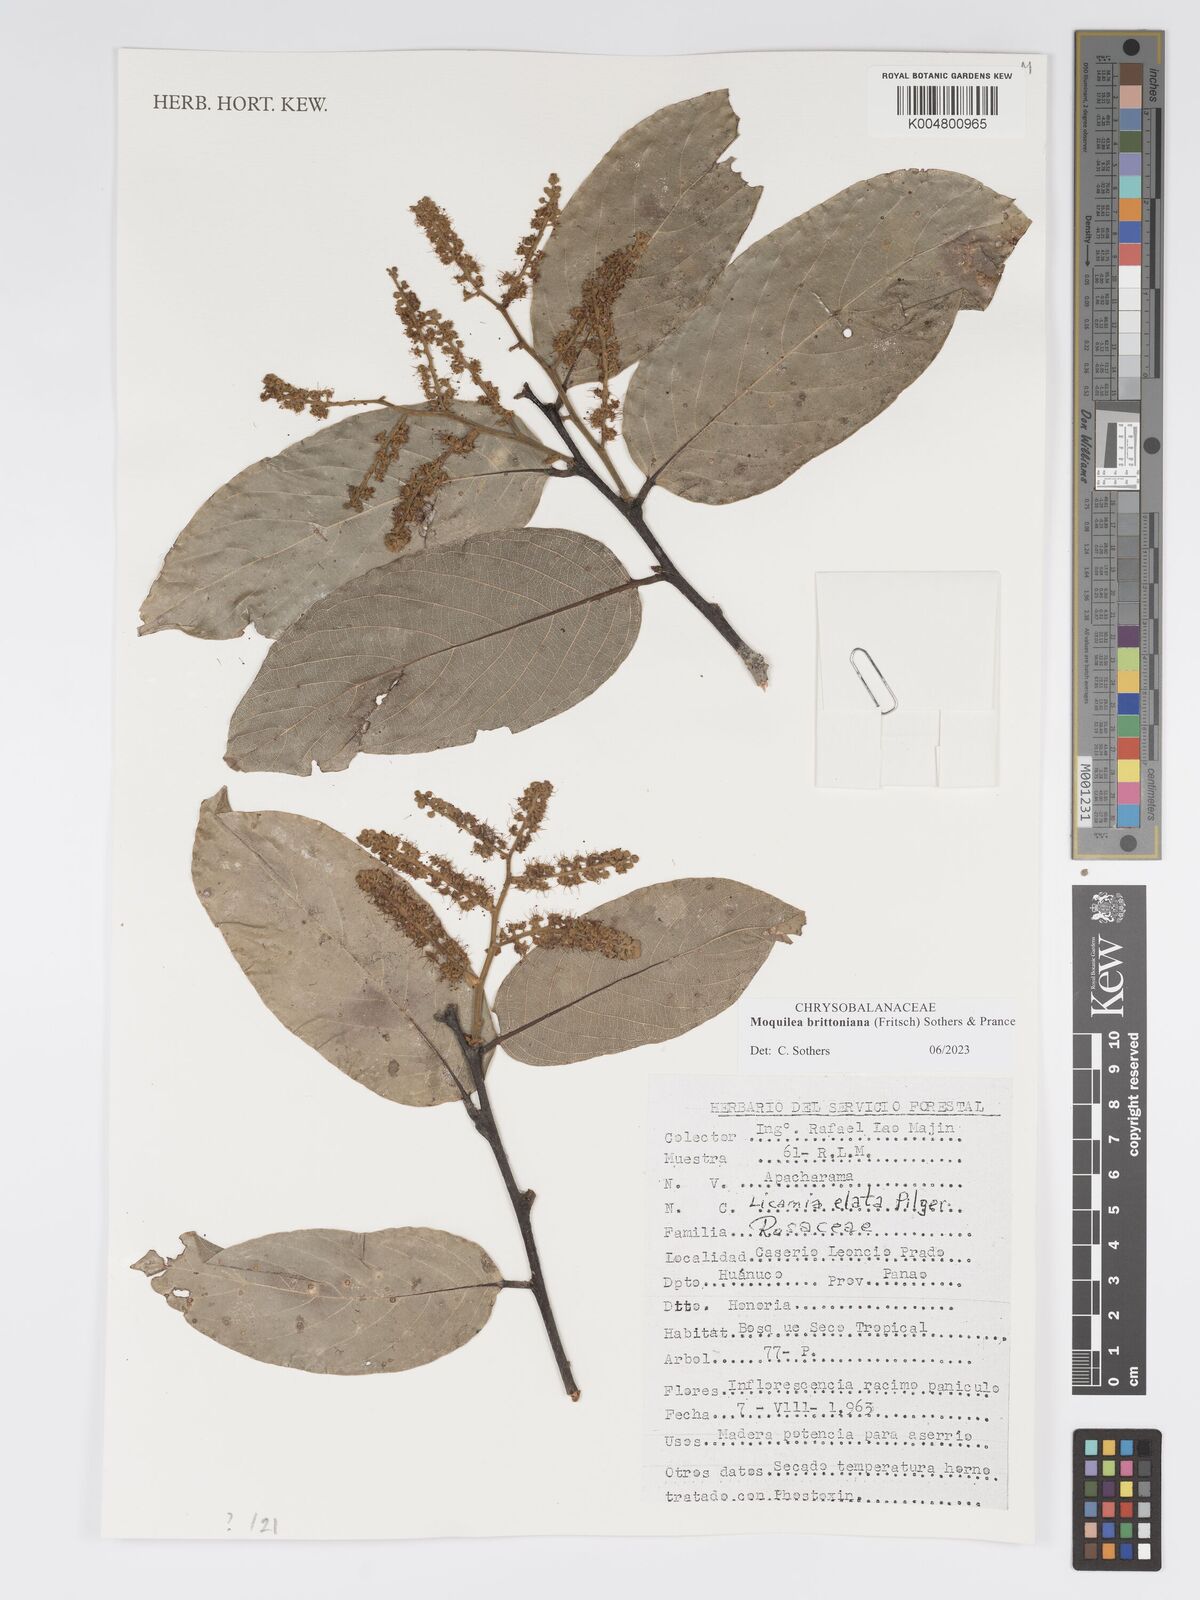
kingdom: Plantae
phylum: Tracheophyta
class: Magnoliopsida
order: Malpighiales
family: Chrysobalanaceae
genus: Moquilea
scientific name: Moquilea brittoniana
